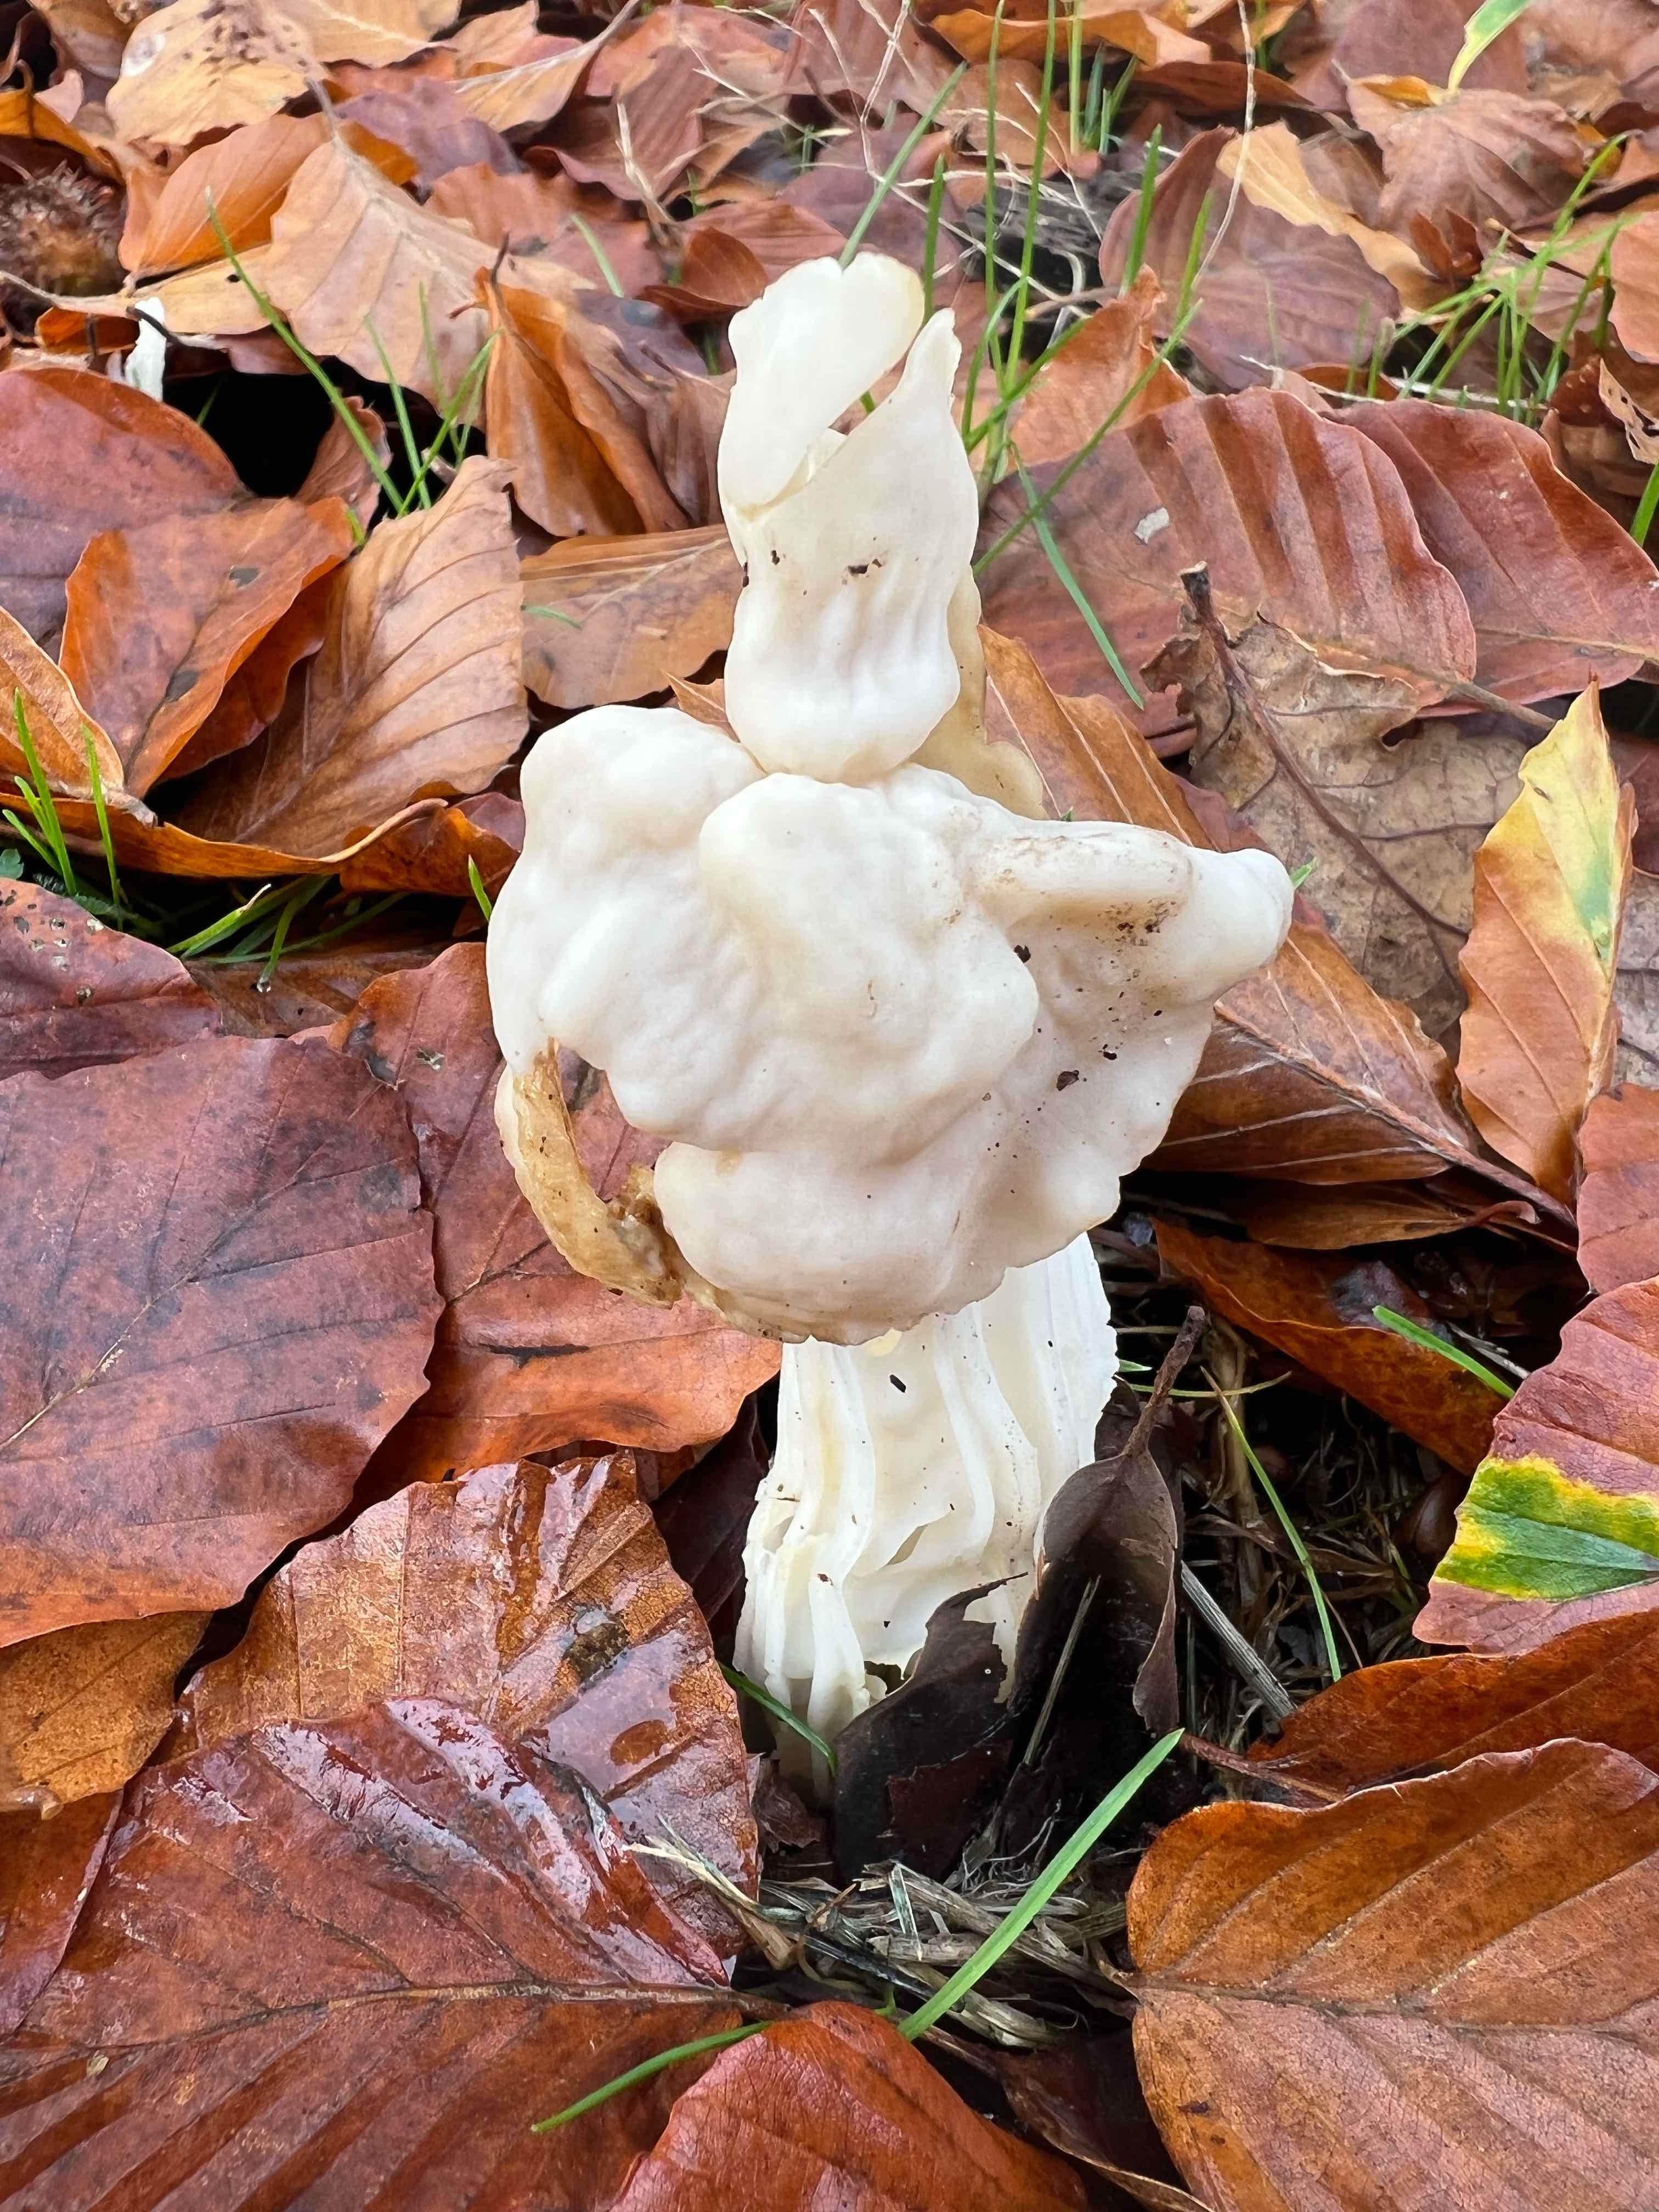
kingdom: Fungi
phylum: Ascomycota
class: Pezizomycetes
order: Pezizales
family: Helvellaceae
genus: Helvella
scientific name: Helvella crispa
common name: kruset foldhat
